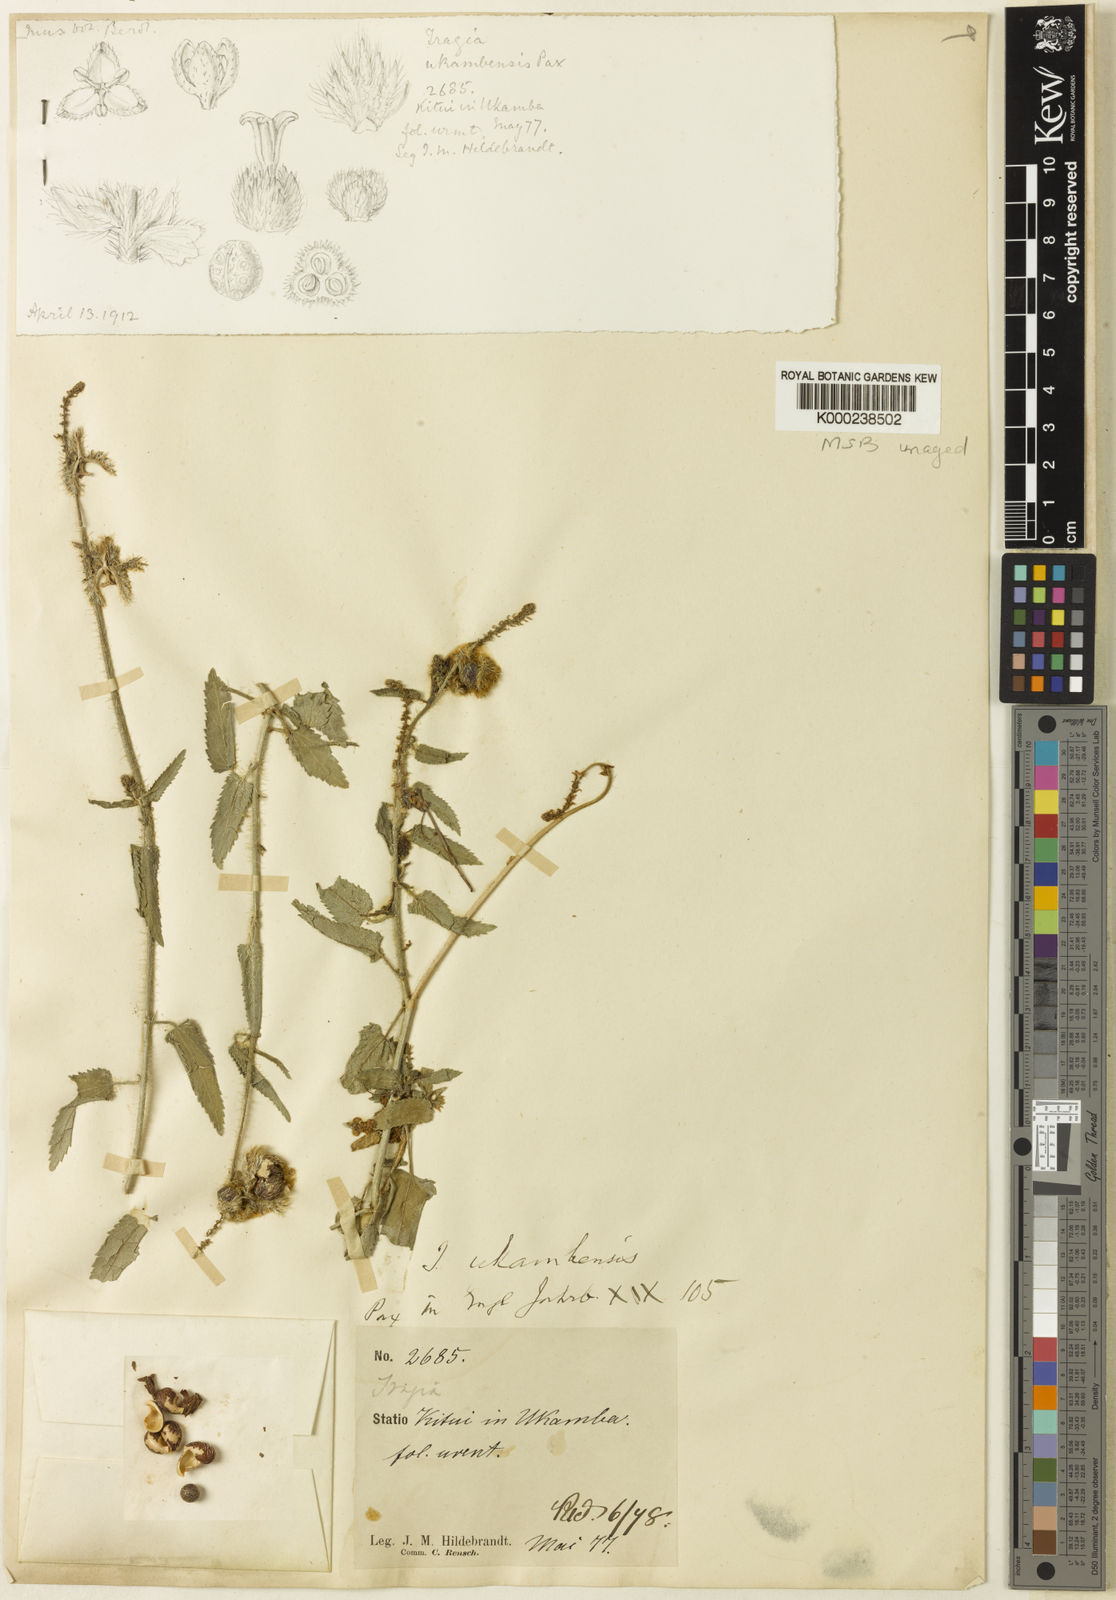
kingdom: Plantae
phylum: Tracheophyta
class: Magnoliopsida
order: Malpighiales
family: Euphorbiaceae
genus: Tragia
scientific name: Tragia ukambensis
